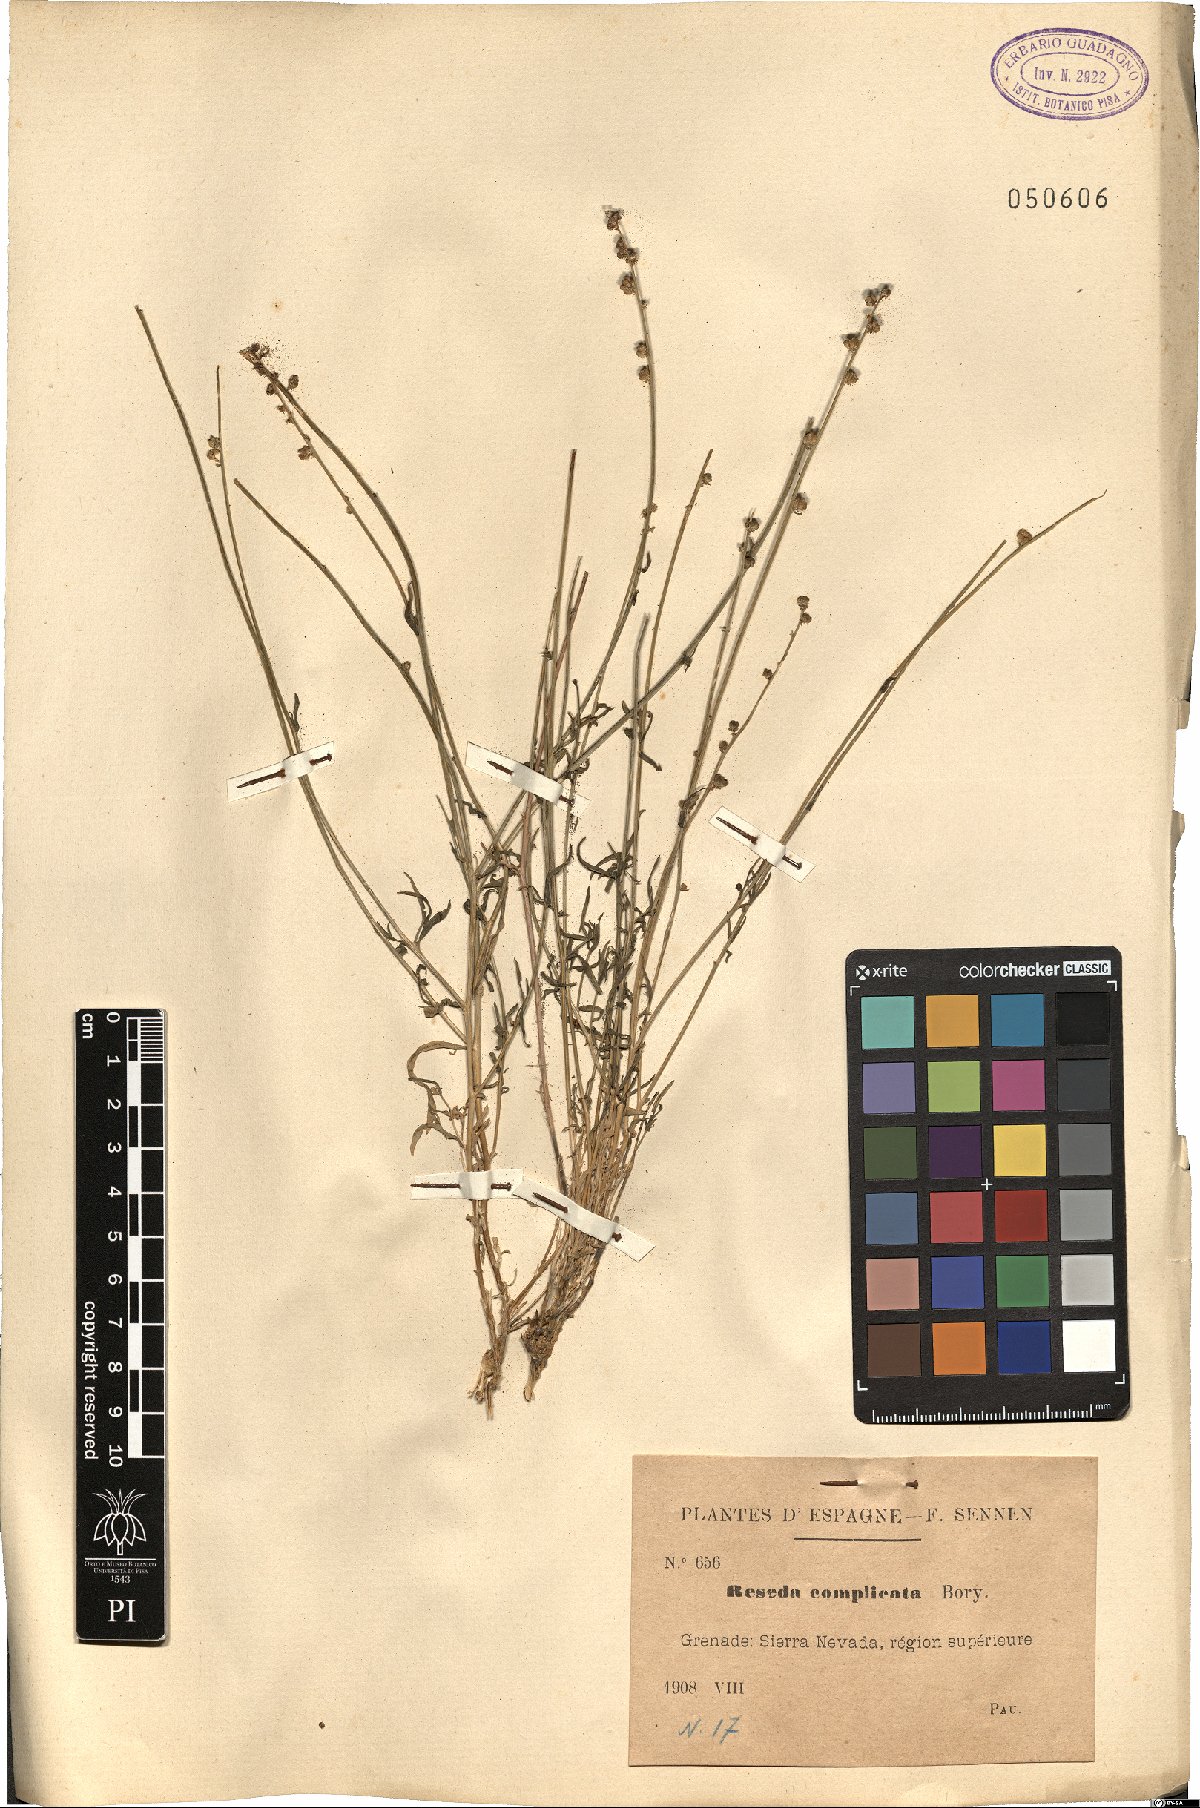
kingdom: Plantae
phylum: Tracheophyta
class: Magnoliopsida
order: Brassicales
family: Resedaceae
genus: Reseda
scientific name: Reseda complicata
